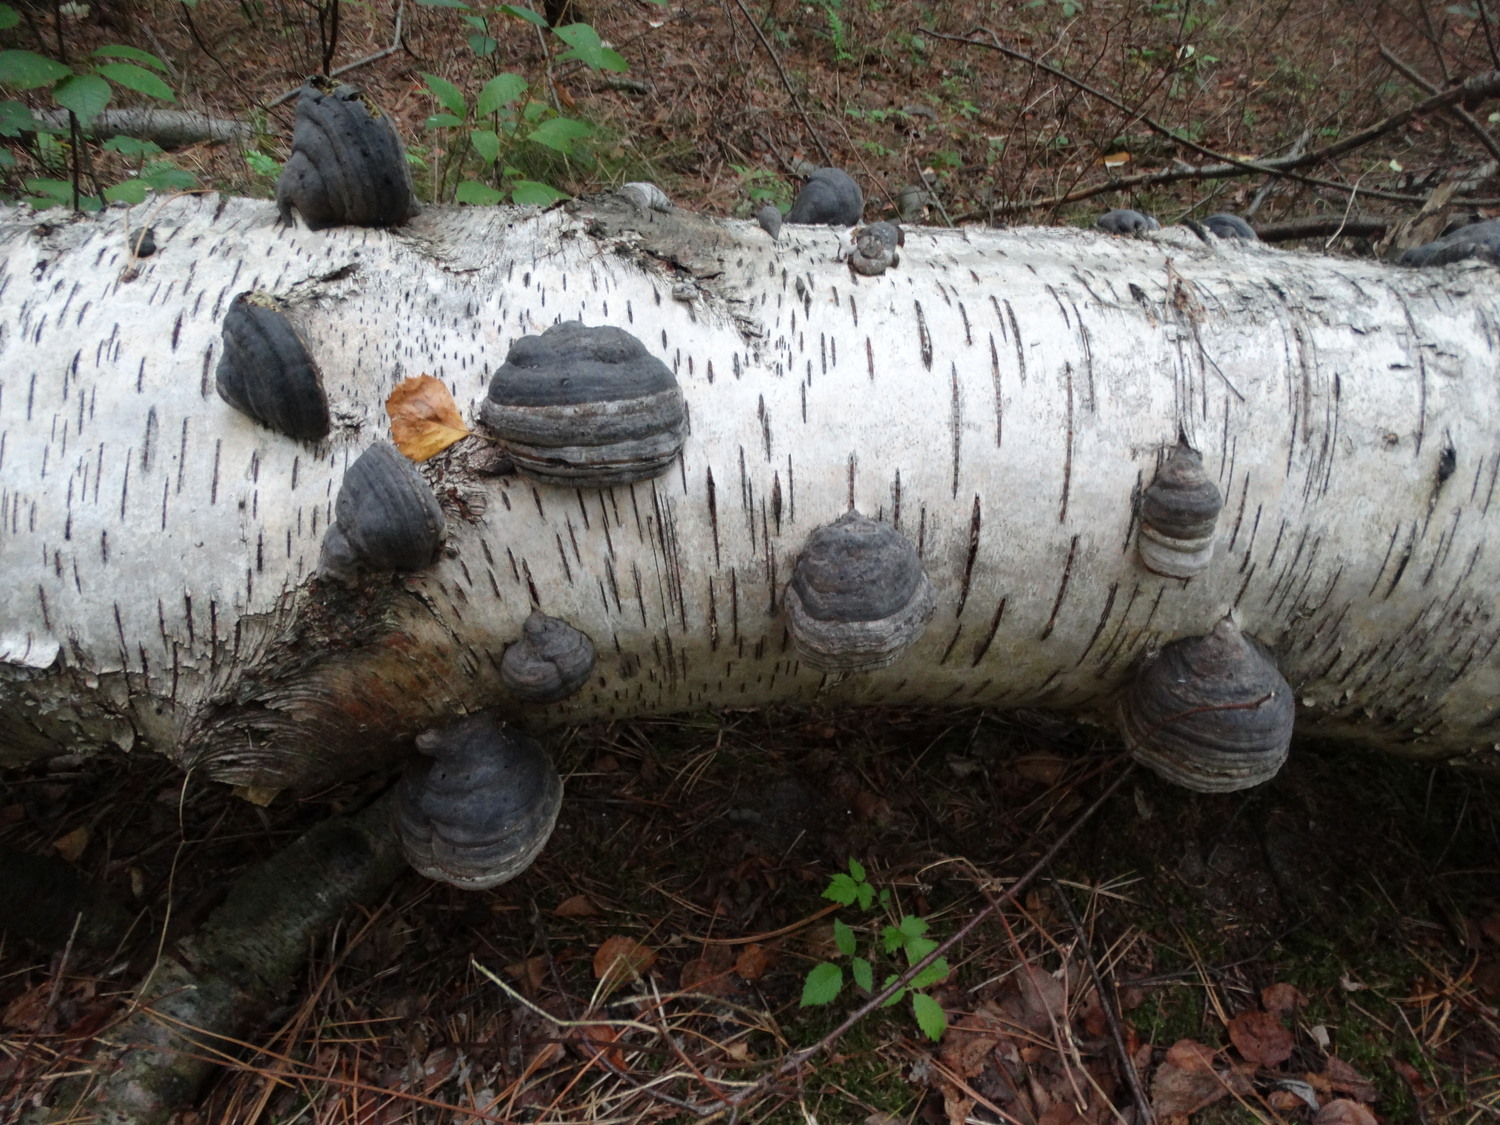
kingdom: Fungi
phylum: Basidiomycota
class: Agaricomycetes
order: Polyporales
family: Polyporaceae
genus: Fomes
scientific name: Fomes fomentarius
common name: tøndersvamp
